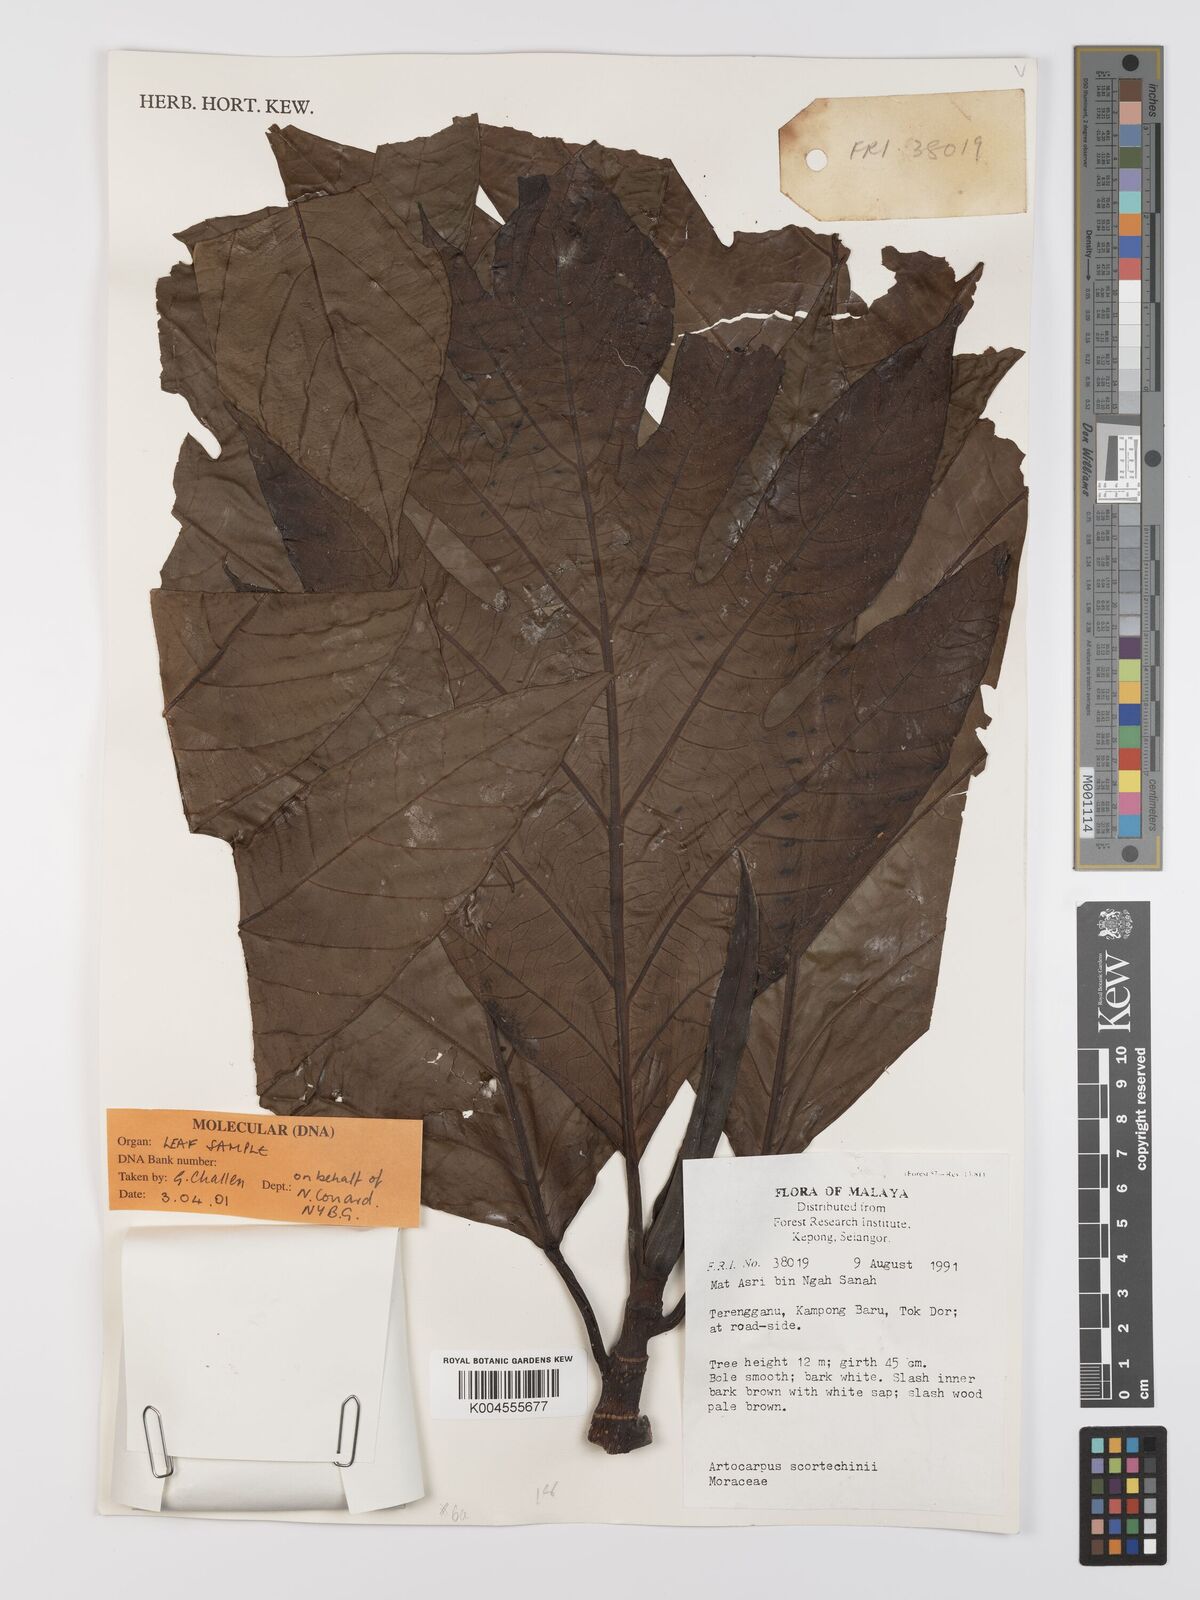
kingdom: Plantae
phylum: Tracheophyta
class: Magnoliopsida
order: Rosales
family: Moraceae
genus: Artocarpus
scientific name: Artocarpus elasticus
